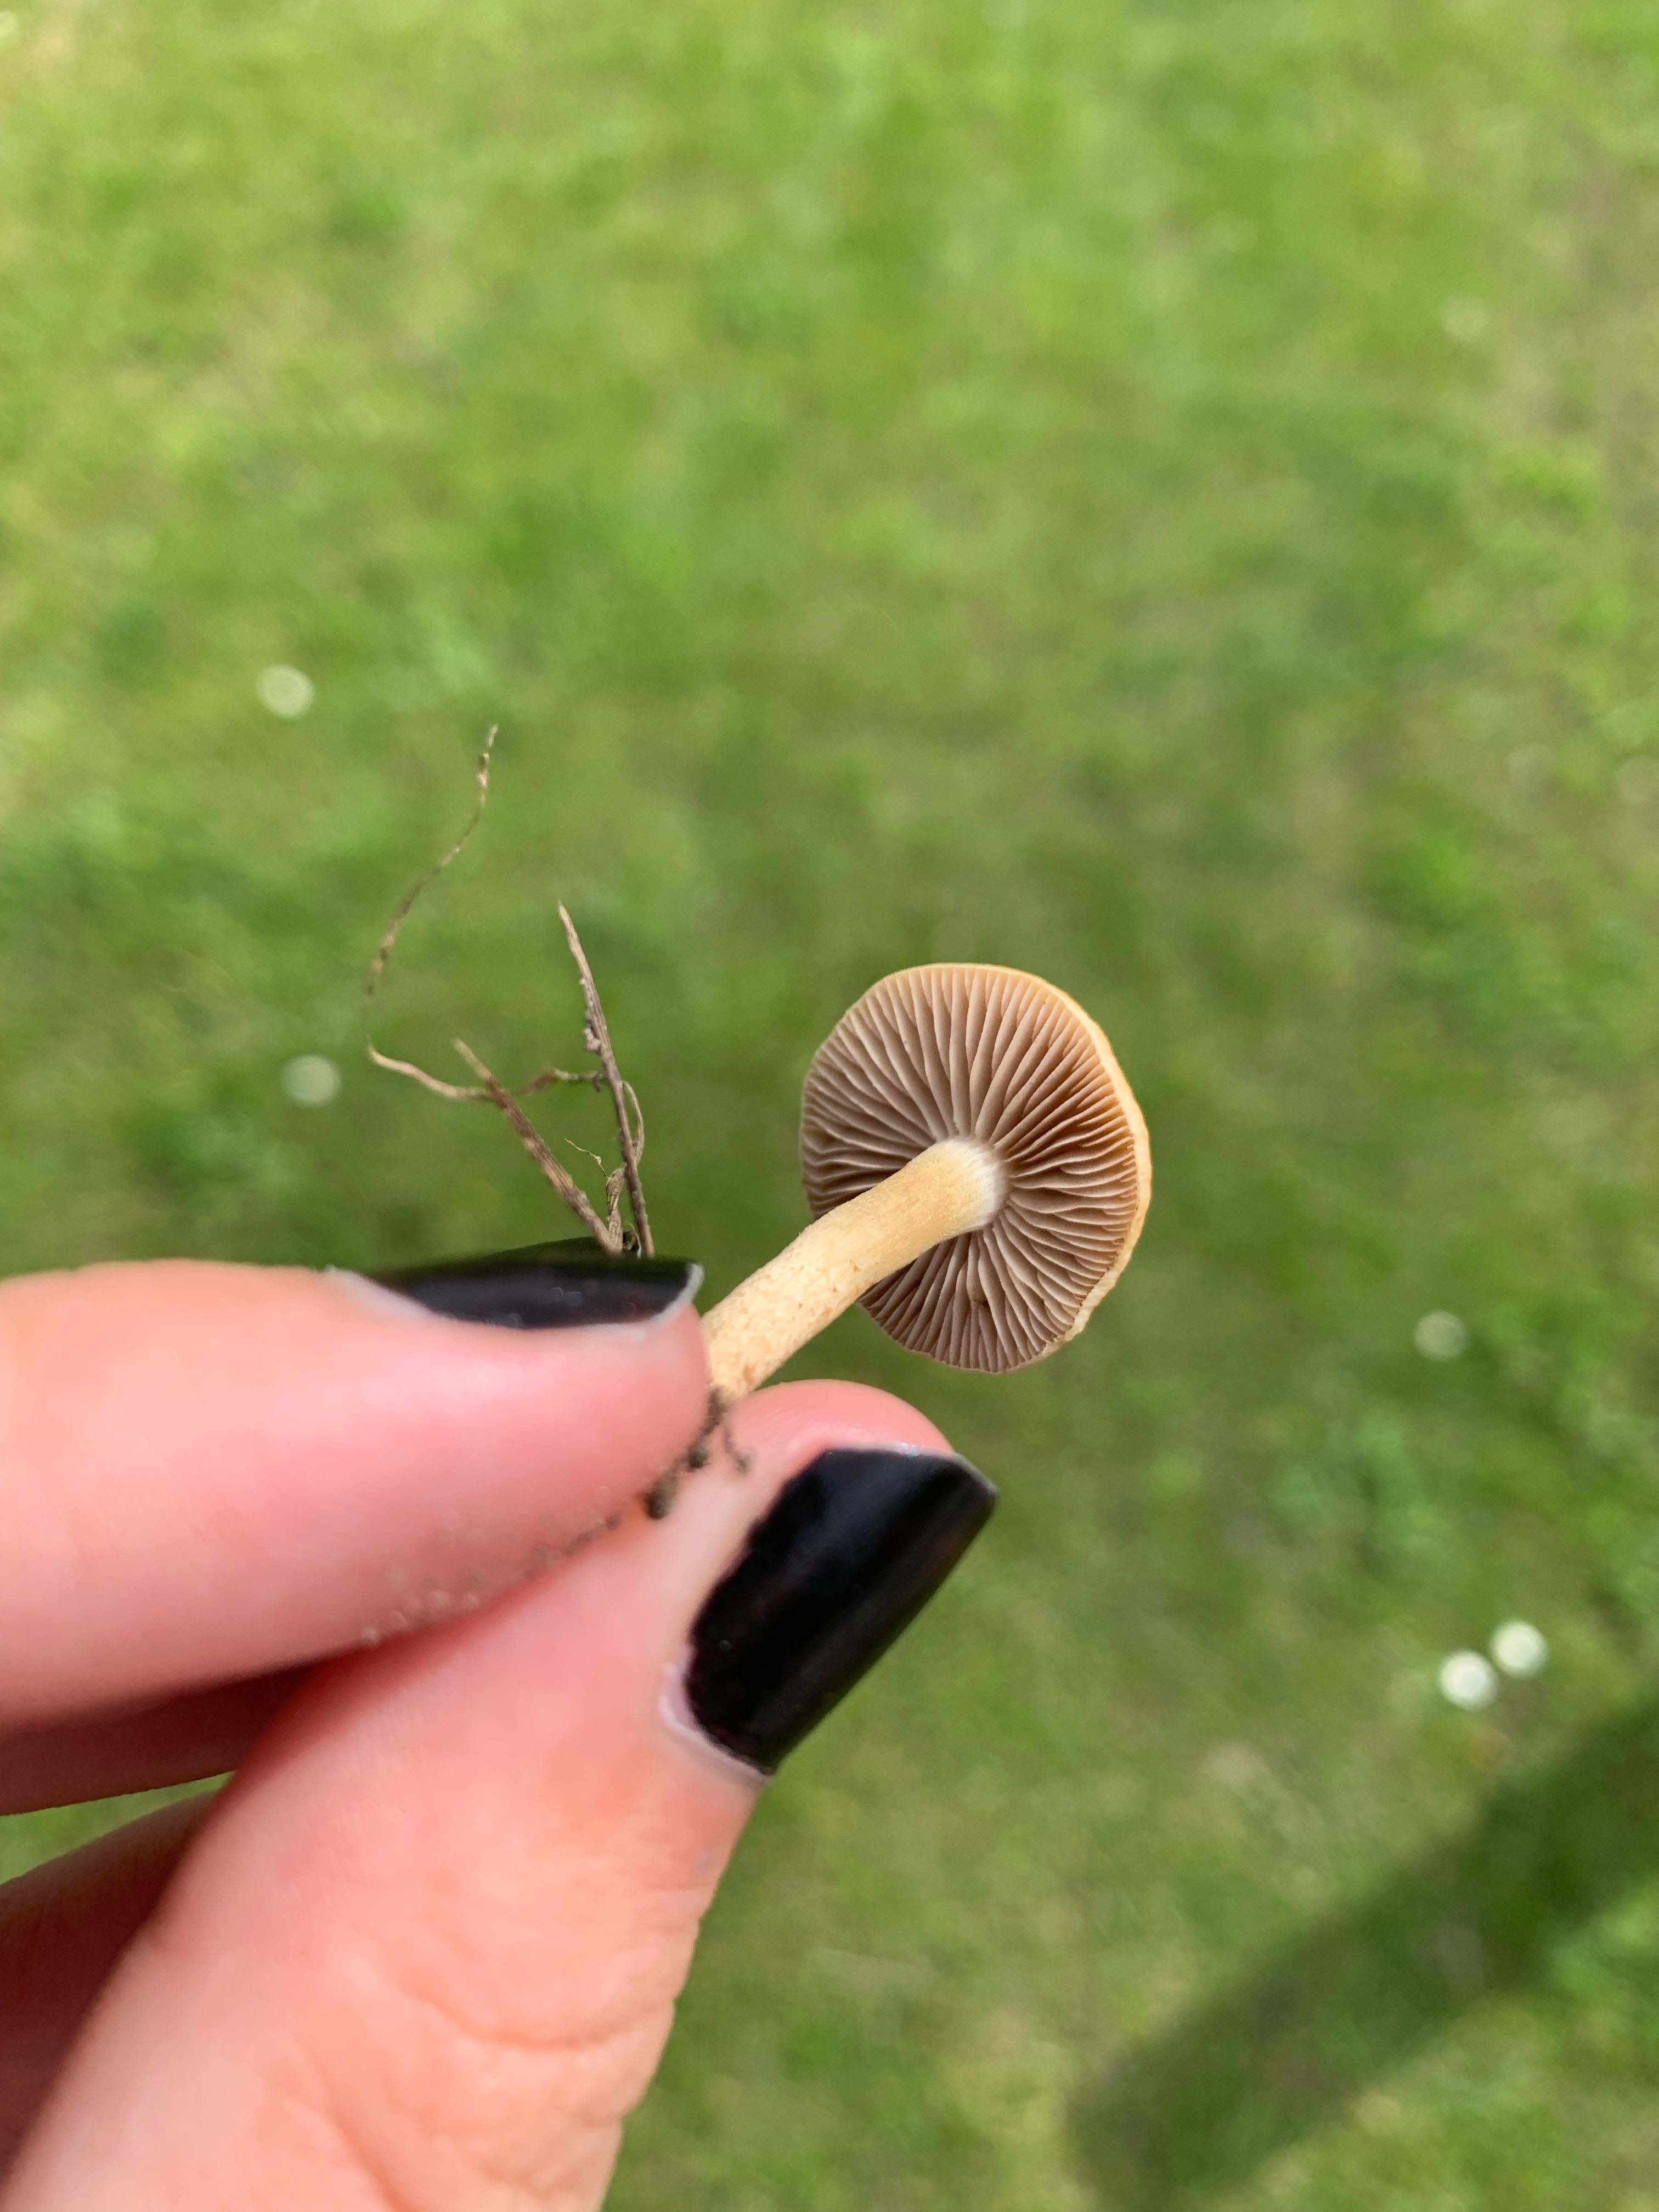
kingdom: Fungi
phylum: Basidiomycota
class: Agaricomycetes
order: Agaricales
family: Strophariaceae
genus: Agrocybe
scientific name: Agrocybe pediades
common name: almindelig agerhat
